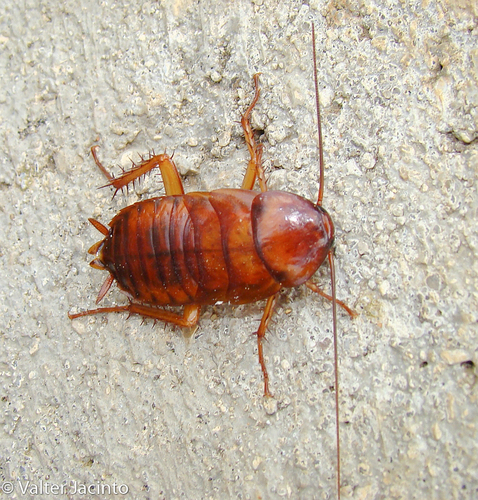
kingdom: Animalia
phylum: Arthropoda
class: Insecta
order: Blattodea
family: Blattidae
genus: Periplaneta
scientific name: Periplaneta americana
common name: American cockroach
